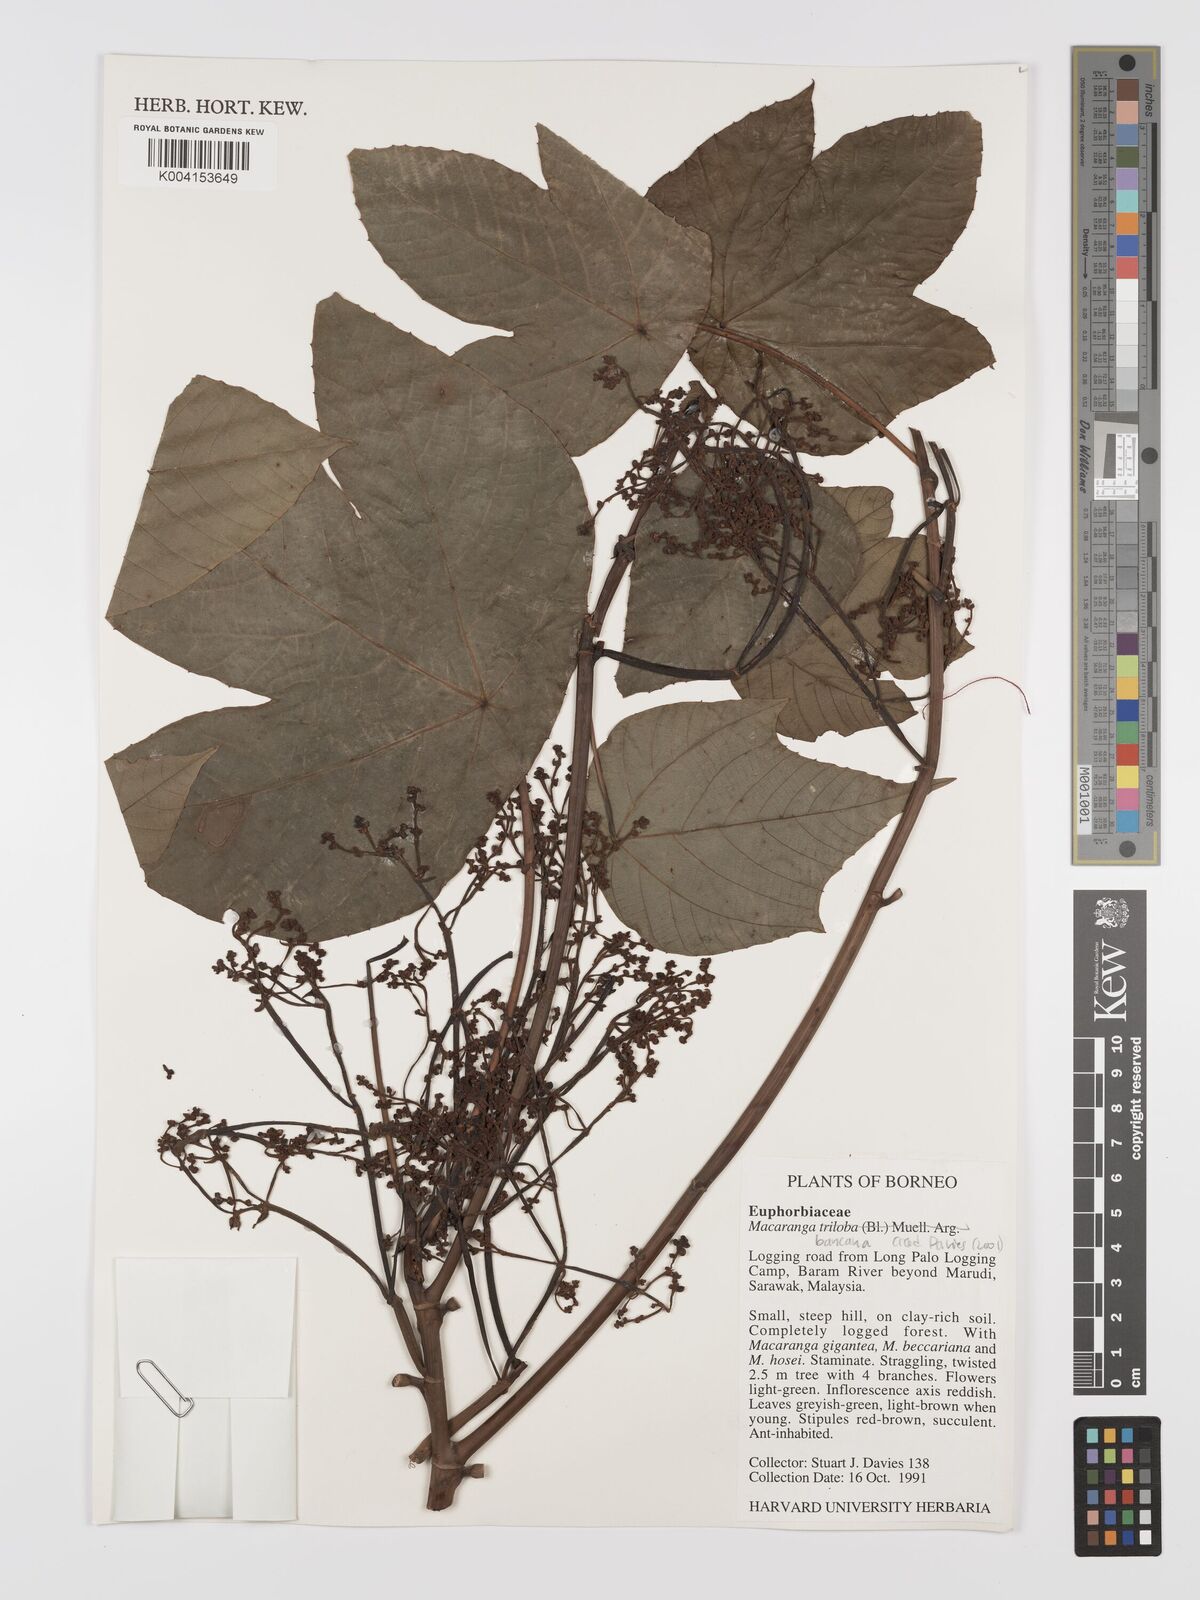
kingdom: Plantae
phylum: Tracheophyta
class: Magnoliopsida
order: Malpighiales
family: Euphorbiaceae
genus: Macaranga
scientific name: Macaranga triloba
